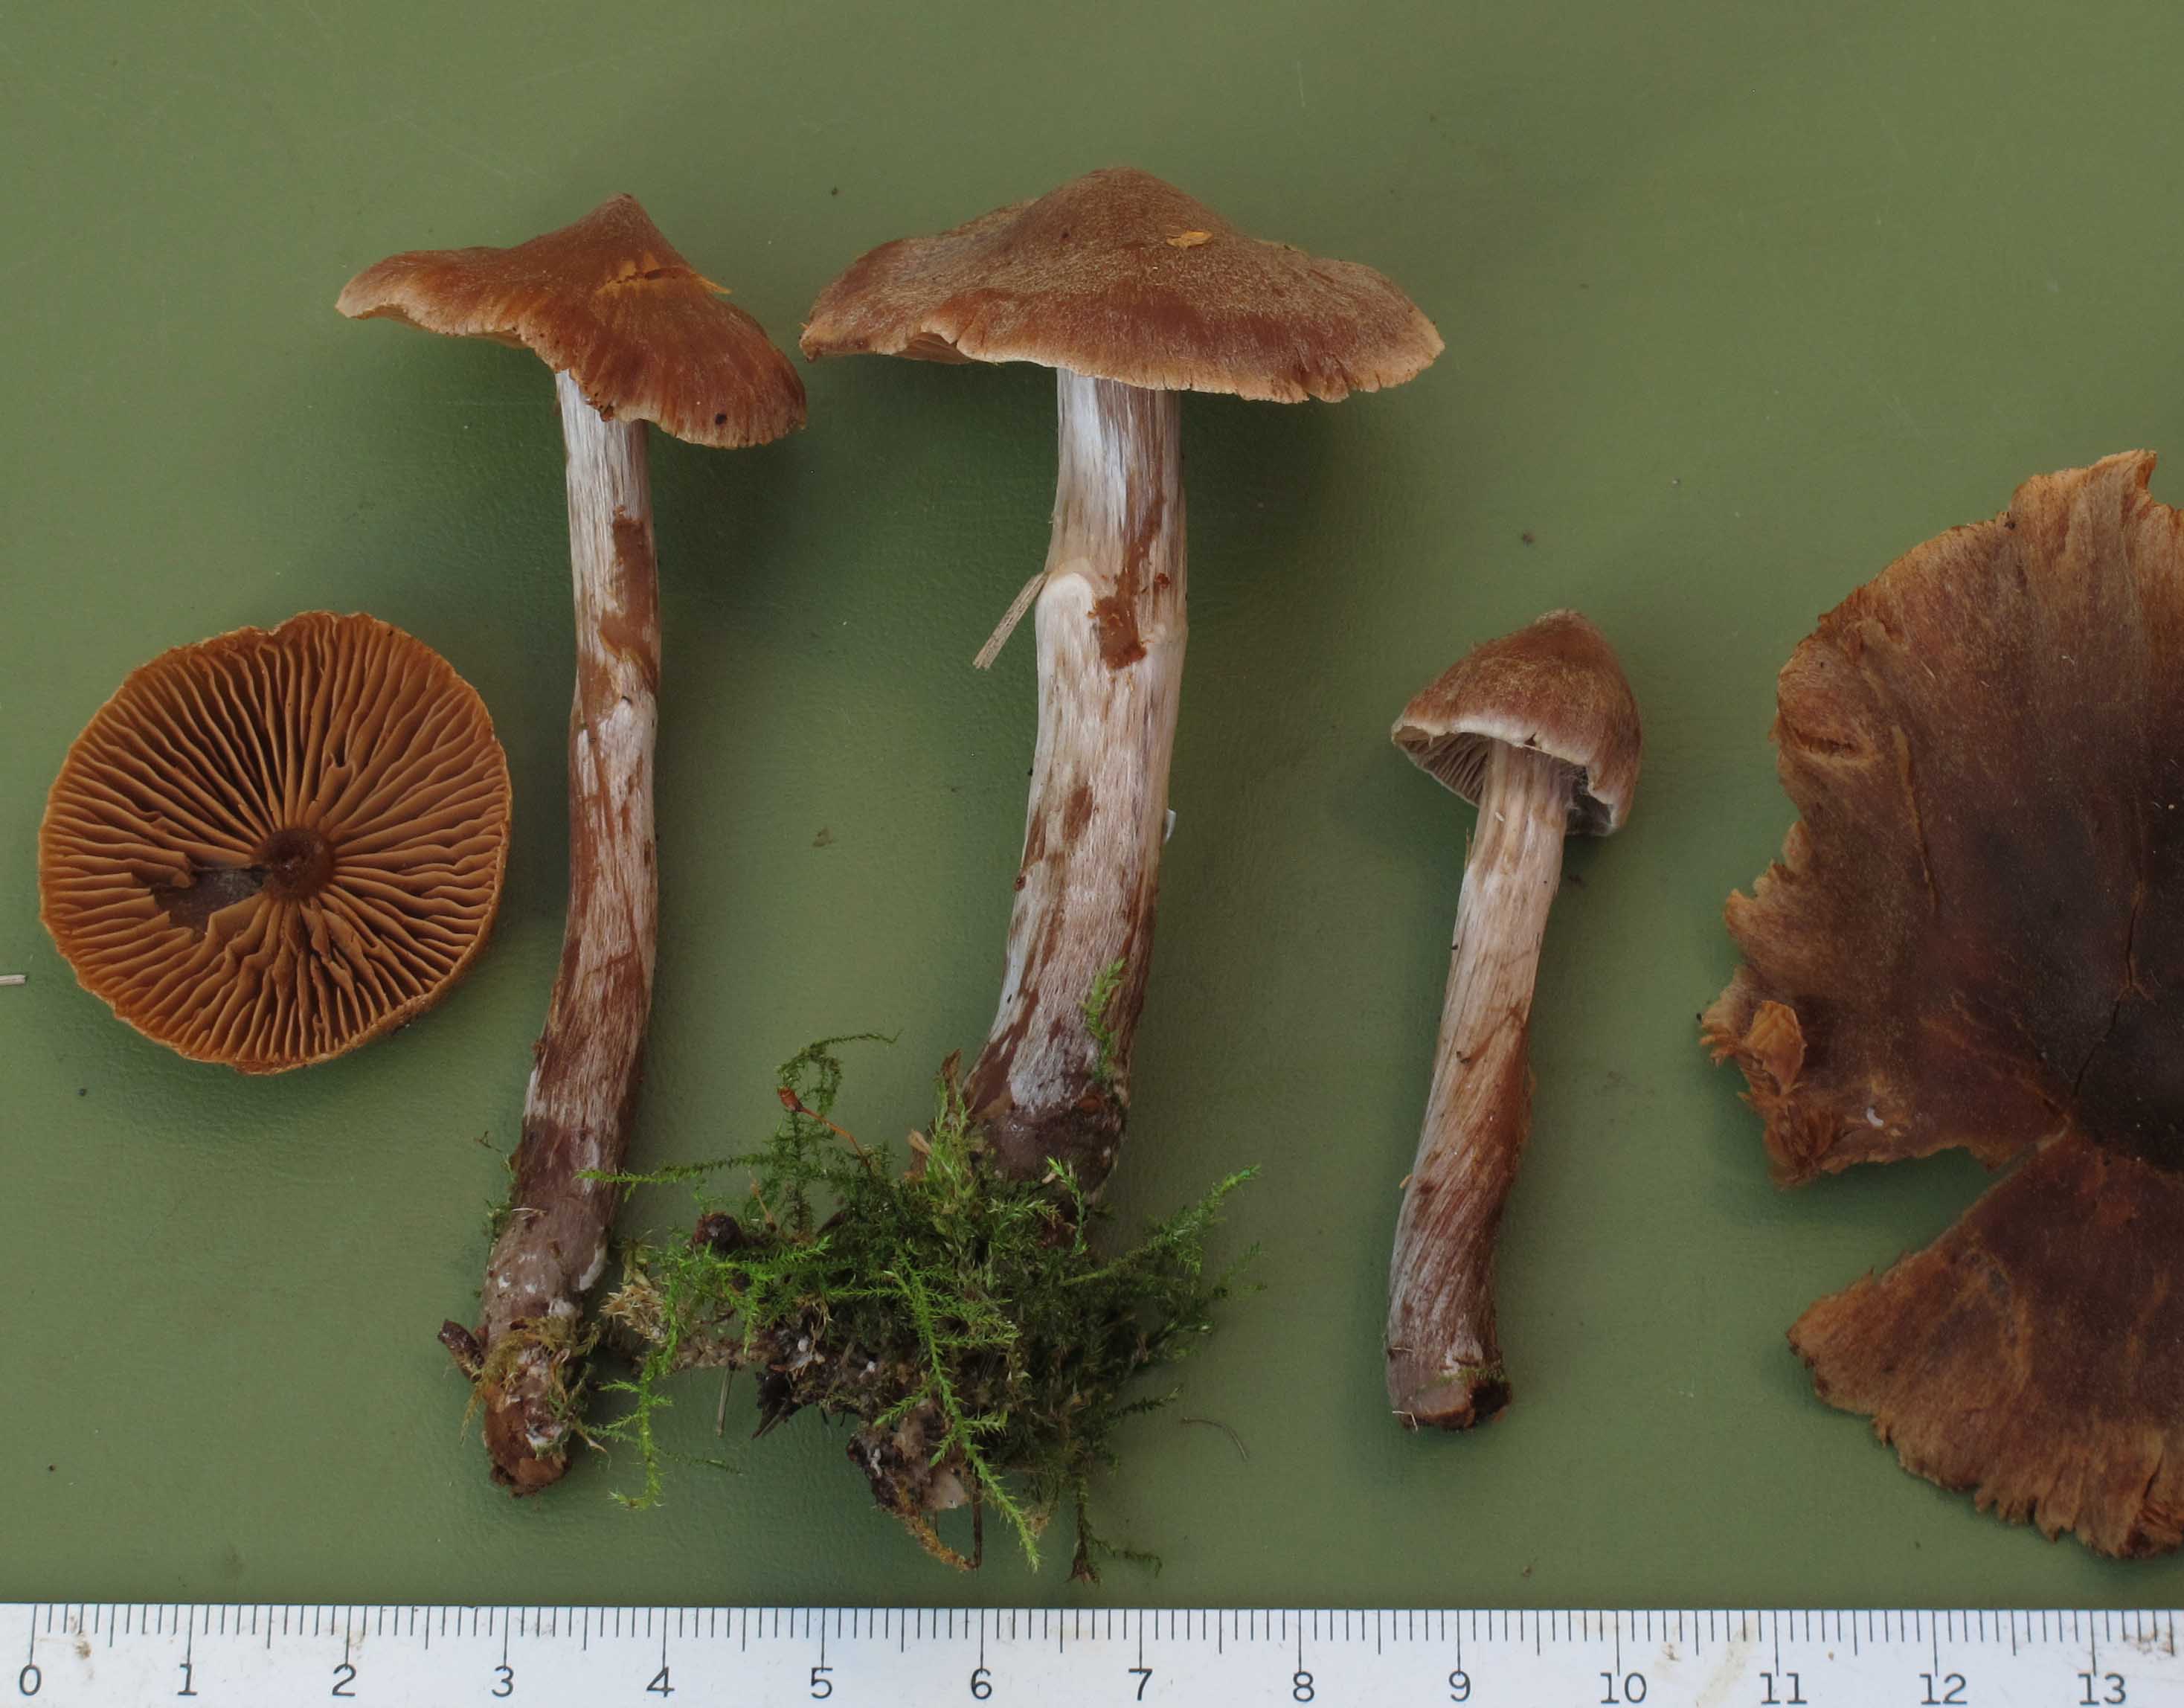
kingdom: Fungi
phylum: Basidiomycota
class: Agaricomycetes
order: Agaricales
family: Cortinariaceae
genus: Cortinarius
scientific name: Cortinarius nigrocuspidatus
